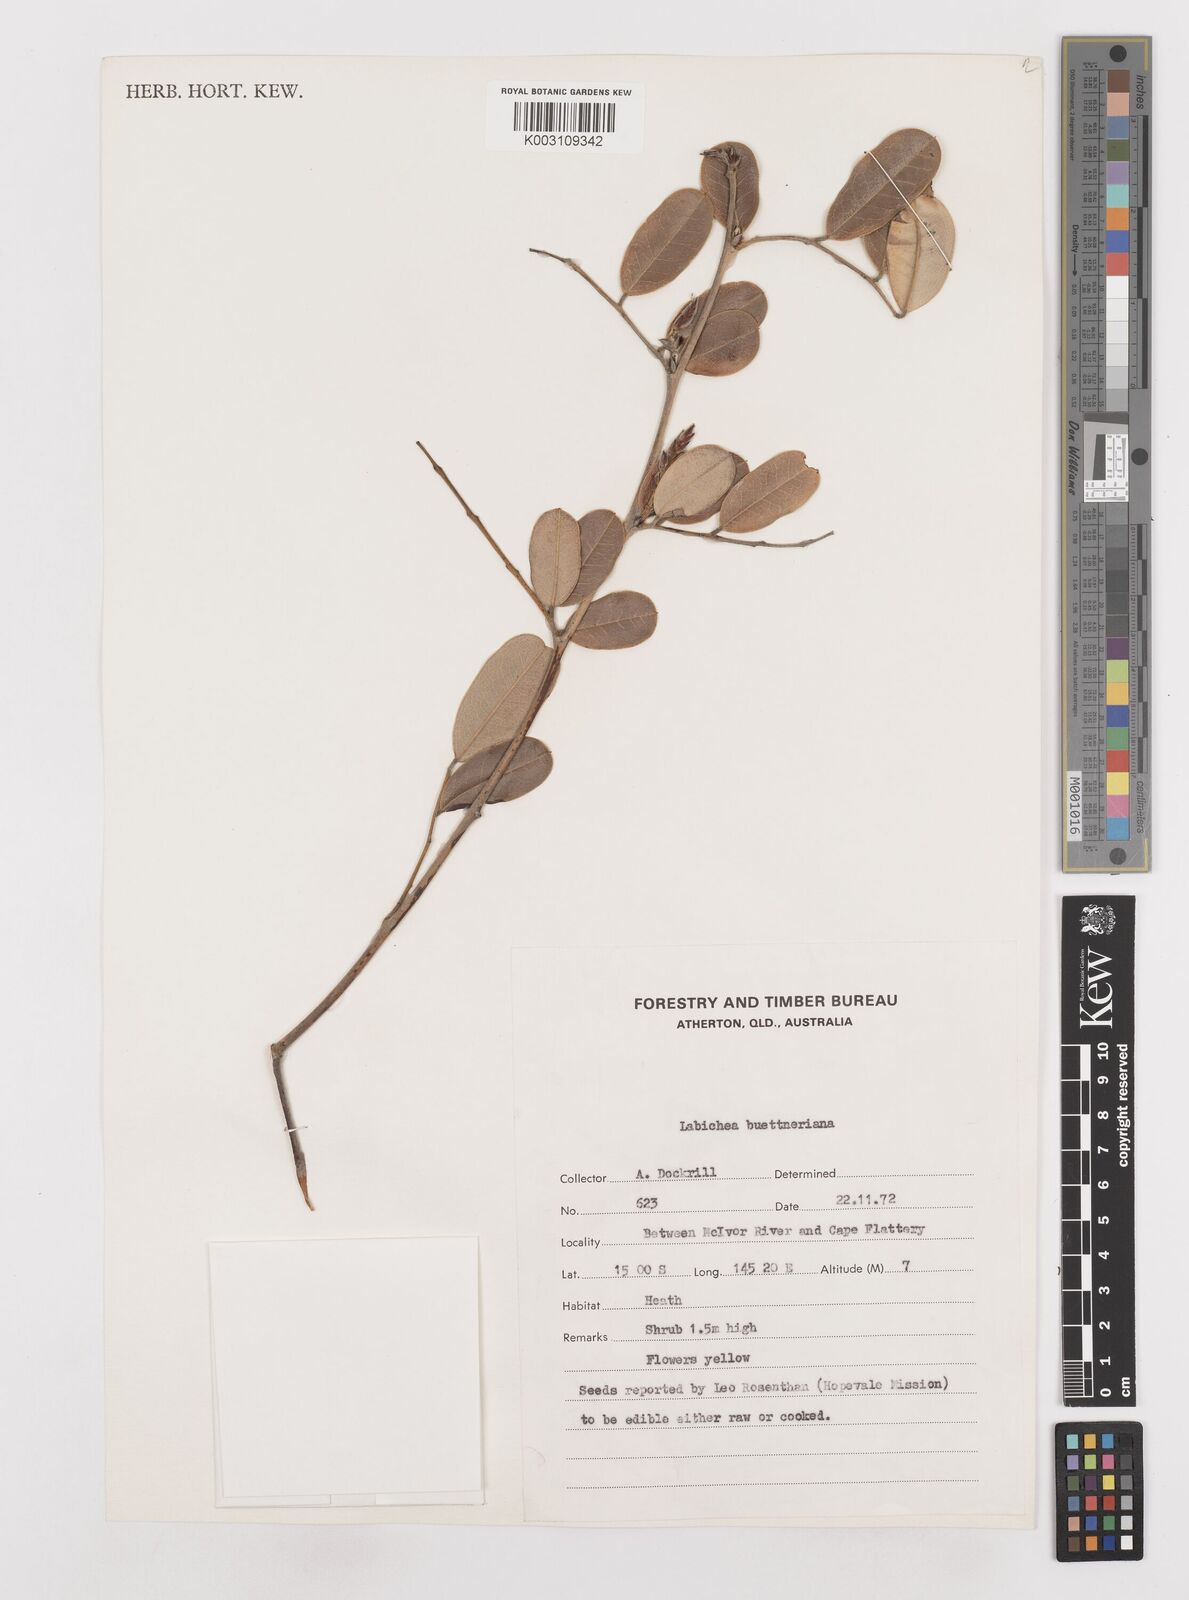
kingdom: Plantae
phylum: Tracheophyta
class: Magnoliopsida
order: Fabales
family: Fabaceae
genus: Labichea
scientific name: Labichea buettneriana
